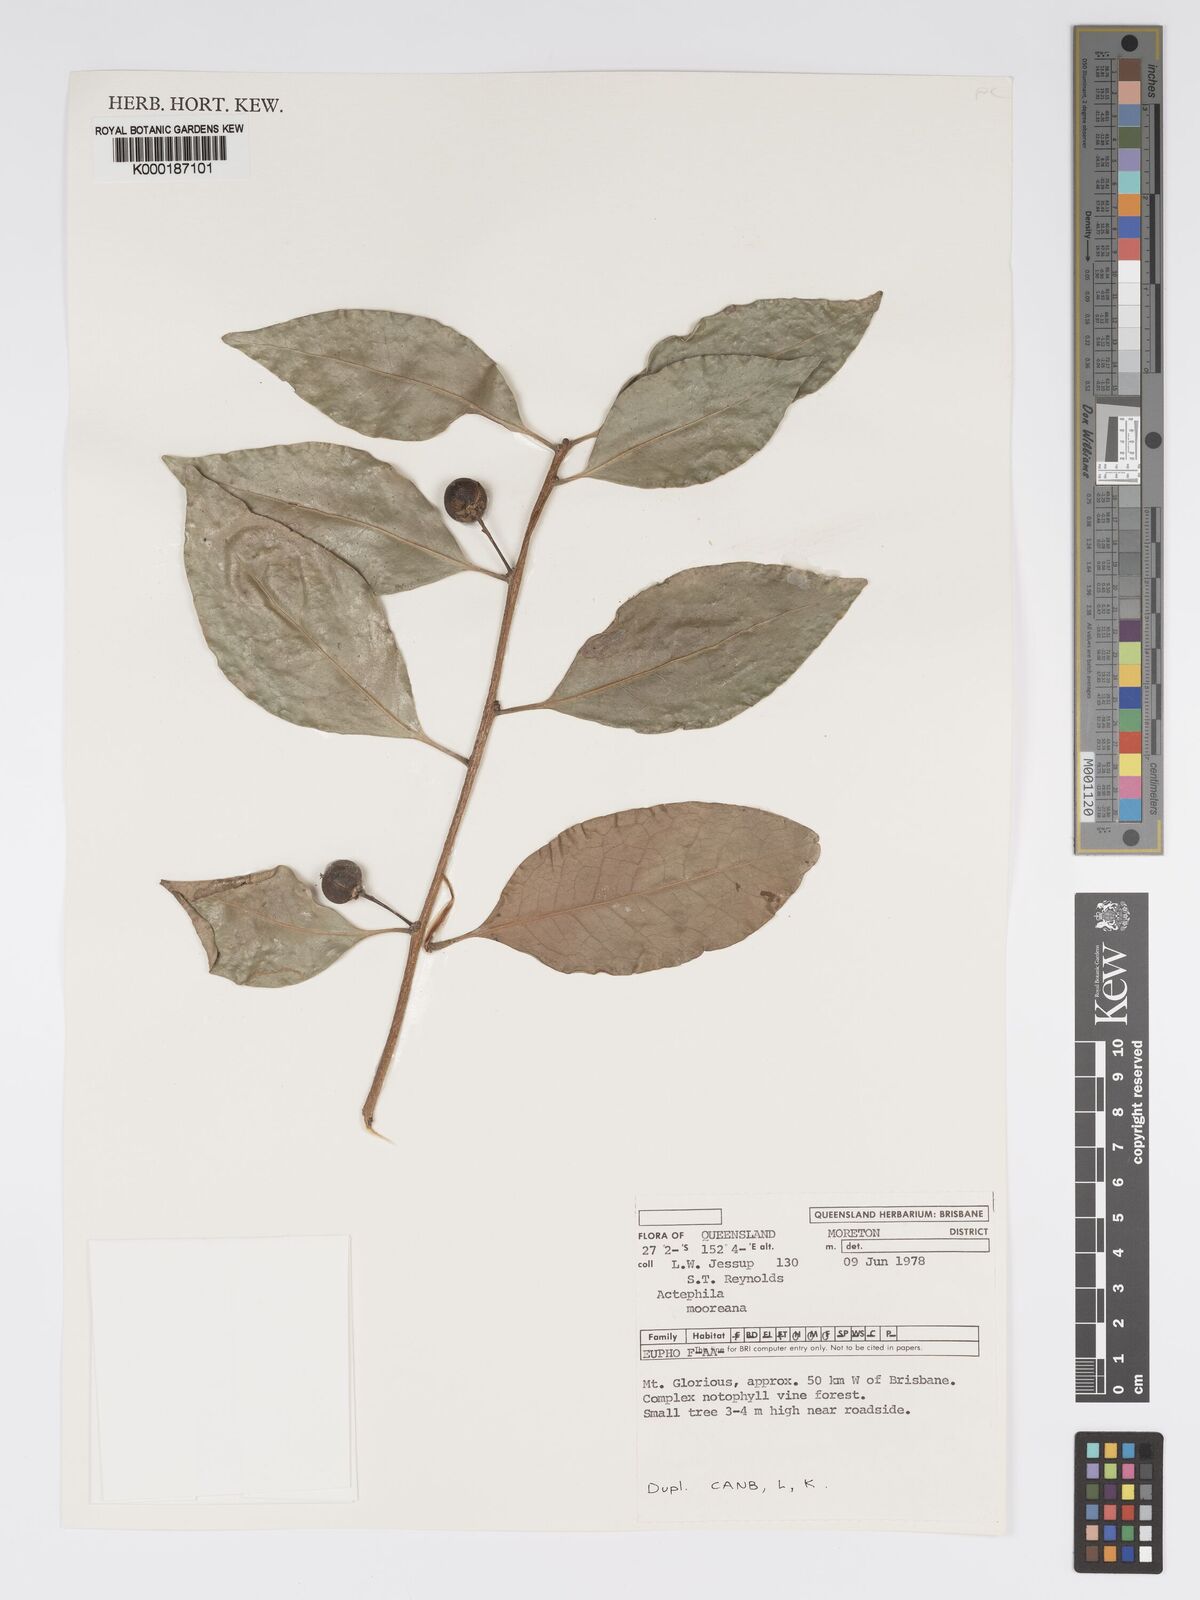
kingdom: Plantae
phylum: Tracheophyta
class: Magnoliopsida
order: Malpighiales
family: Phyllanthaceae
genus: Actephila
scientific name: Actephila lindleyi
